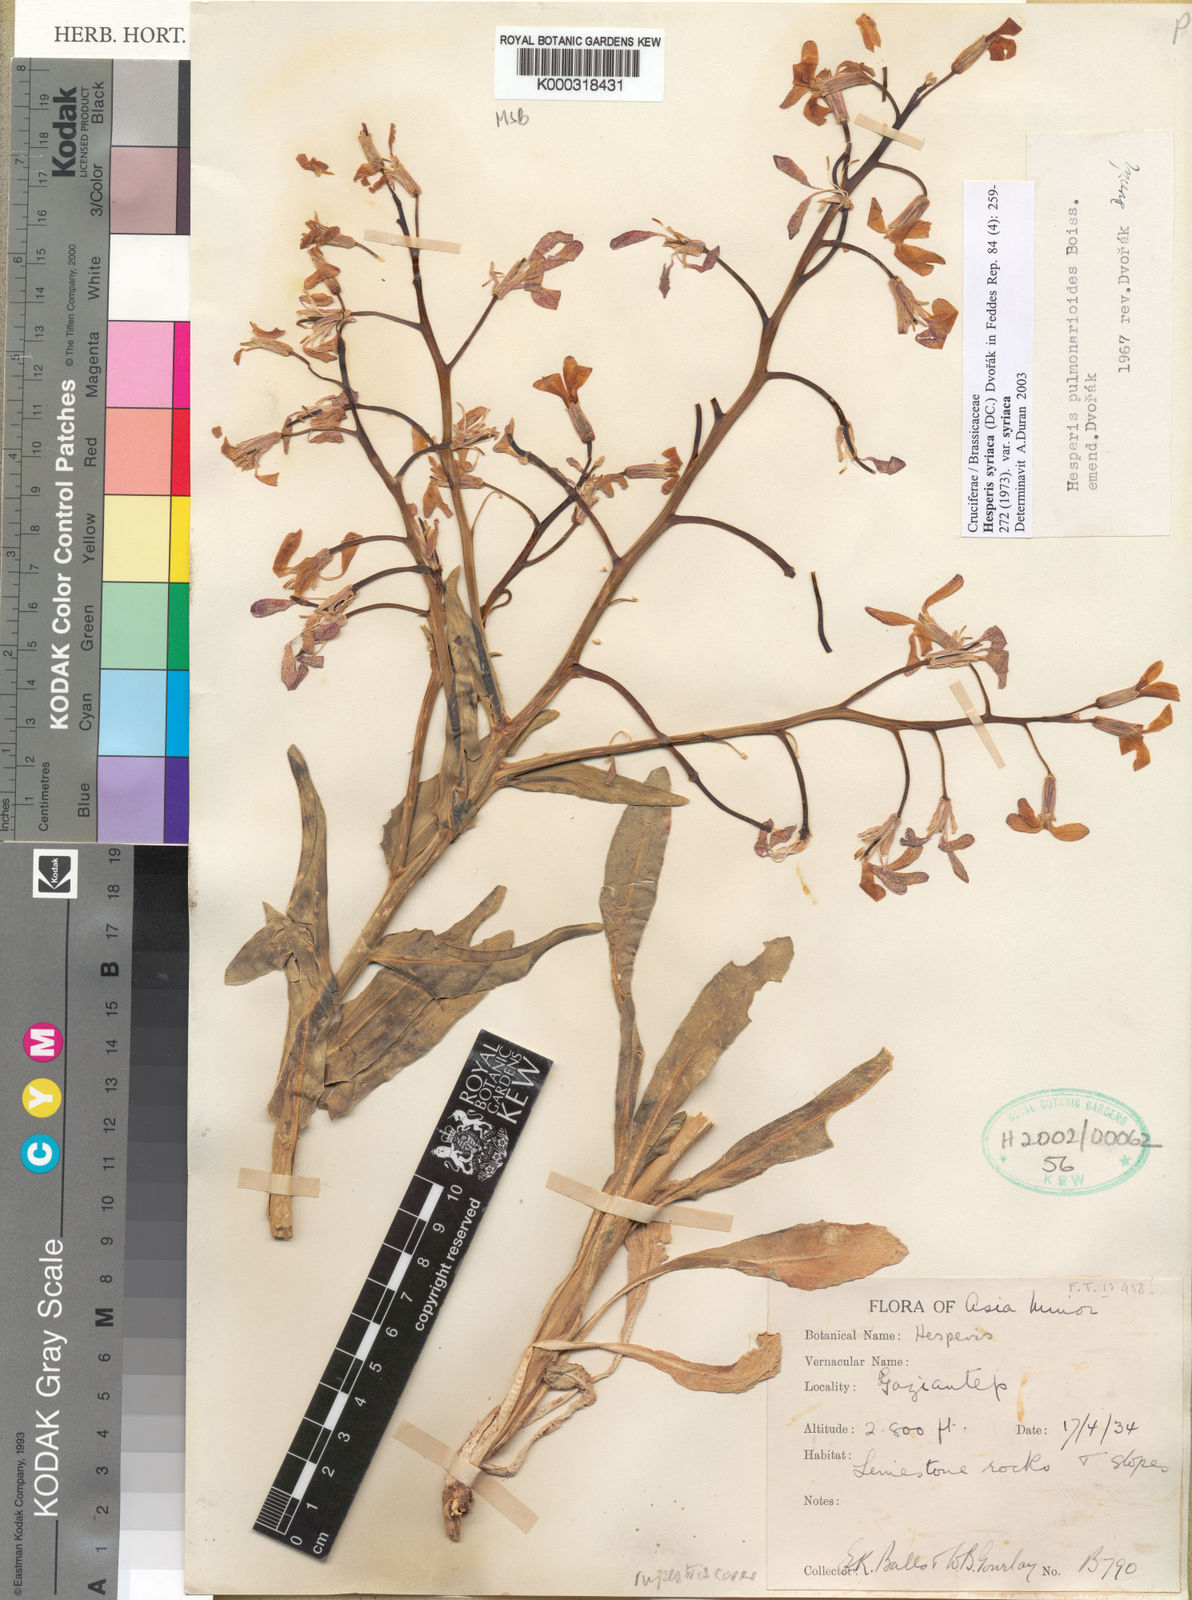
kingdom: Plantae
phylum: Tracheophyta
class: Magnoliopsida
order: Brassicales
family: Brassicaceae
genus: Hesperis
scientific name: Hesperis syriaca
